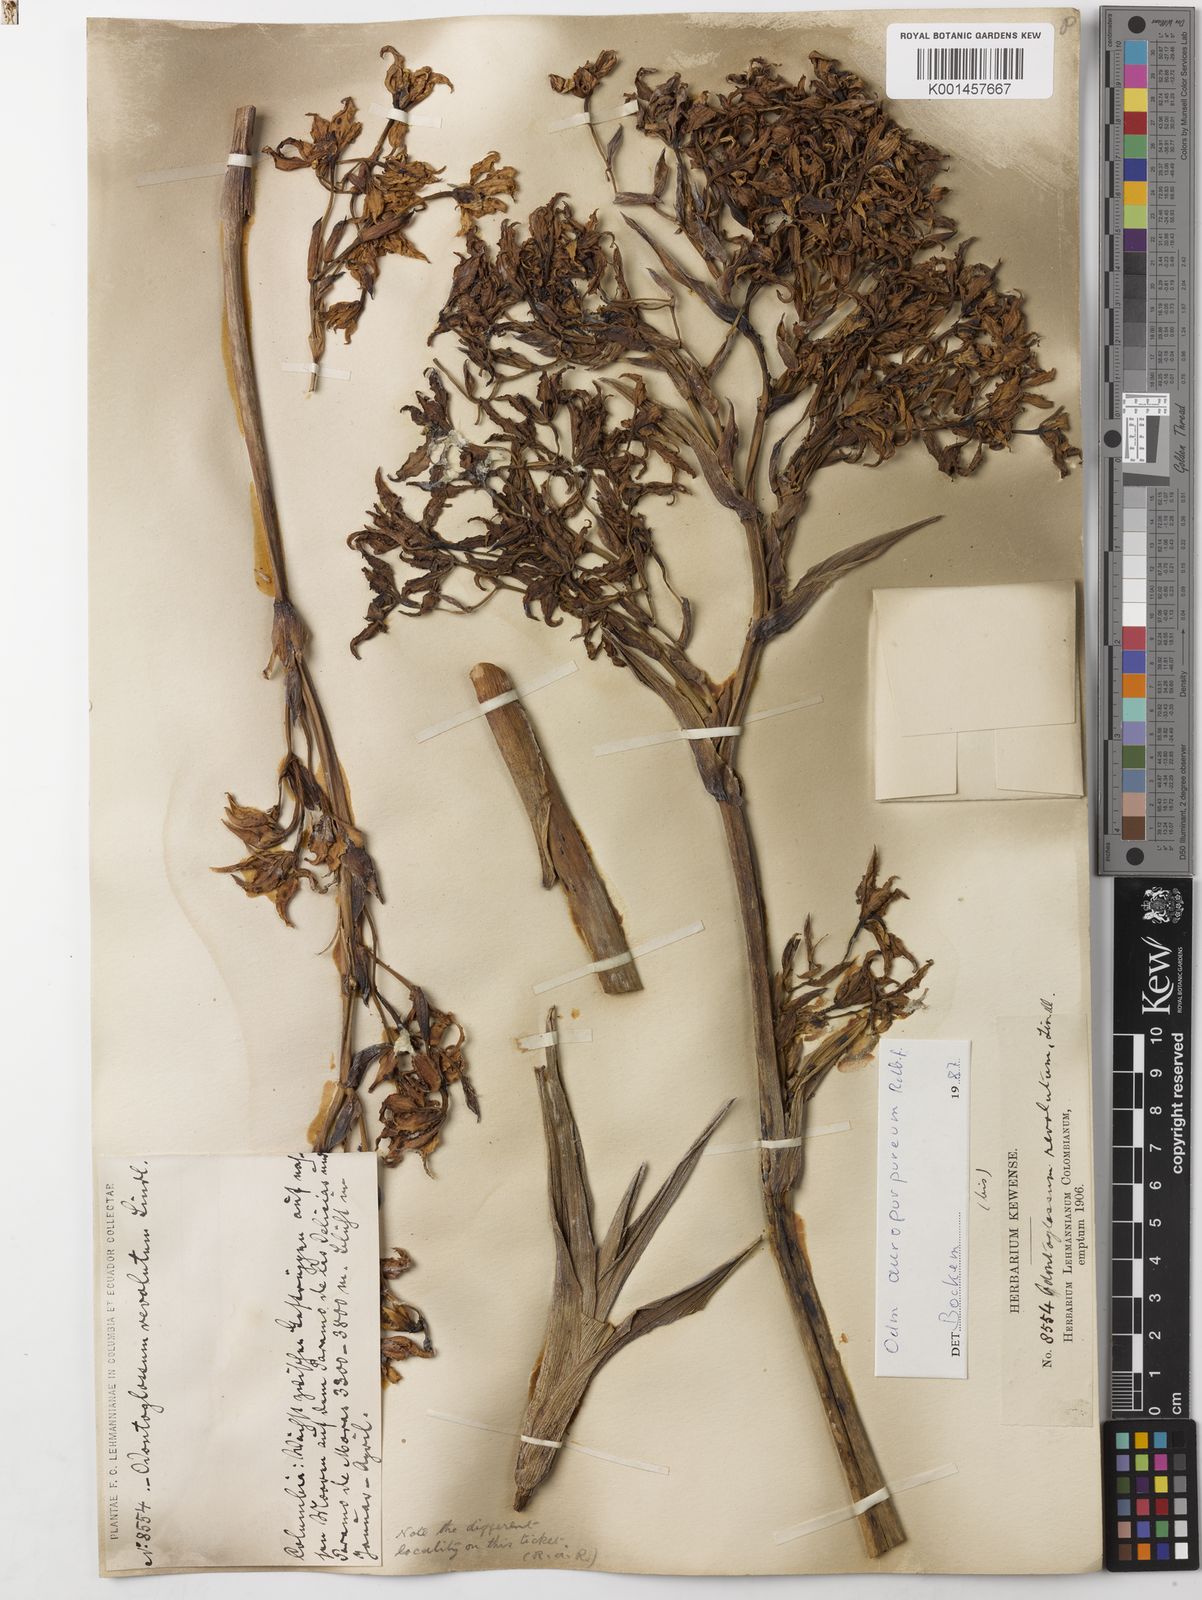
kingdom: Plantae
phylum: Tracheophyta
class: Liliopsida
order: Asparagales
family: Orchidaceae
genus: Cyrtochilum
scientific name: Cyrtochilum
